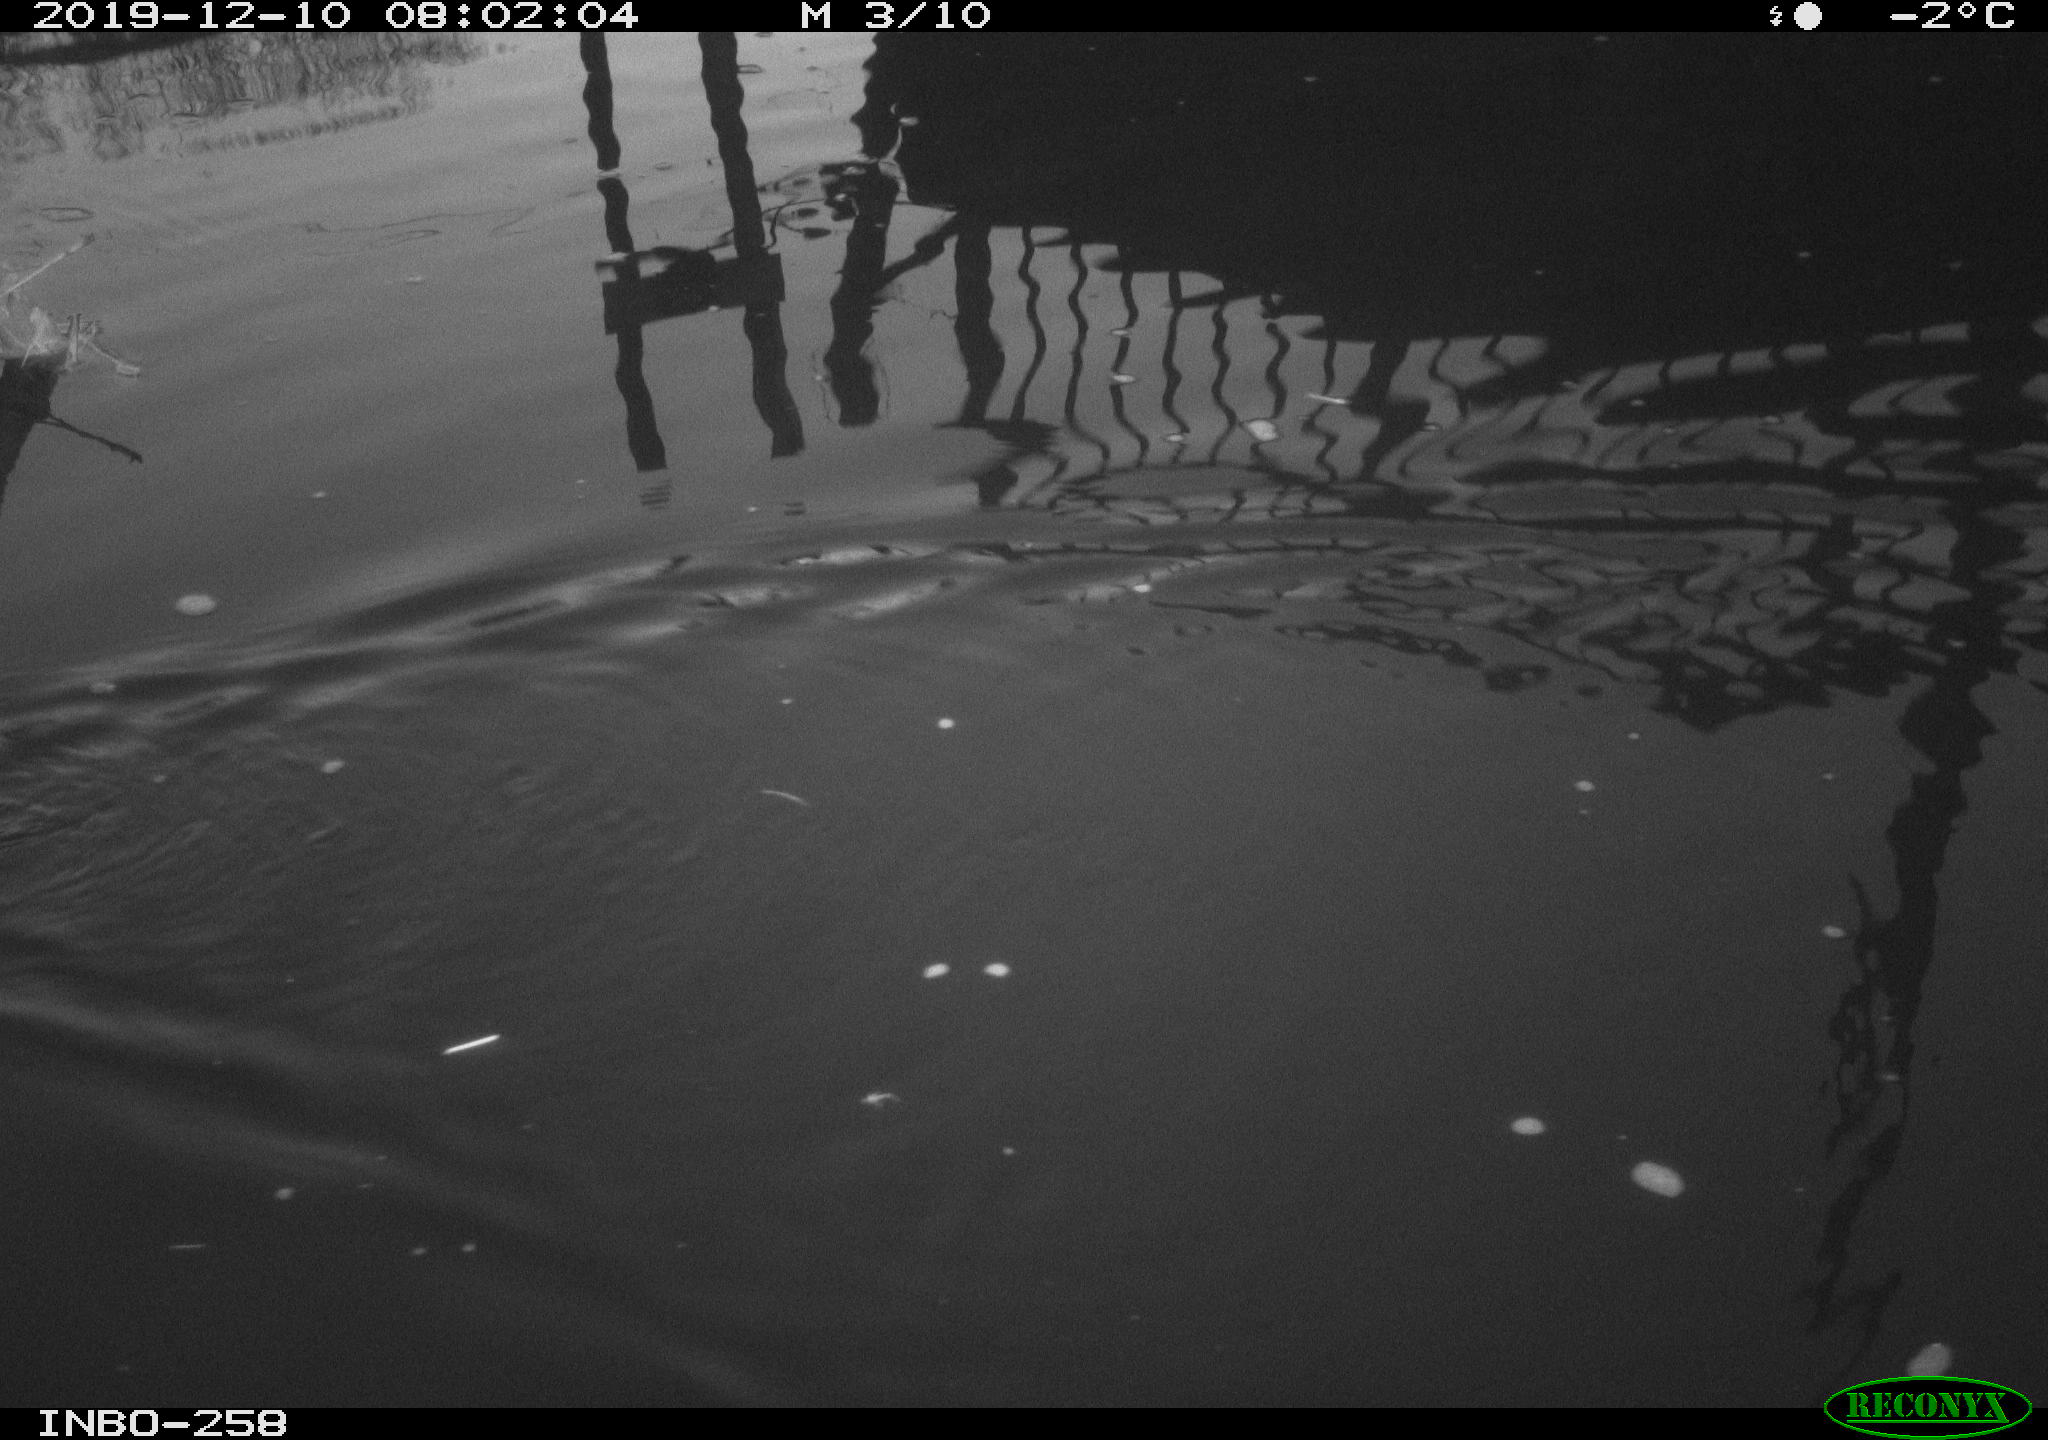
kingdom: Animalia
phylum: Chordata
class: Aves
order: Gruiformes
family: Rallidae
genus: Gallinula
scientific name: Gallinula chloropus
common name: Common moorhen
